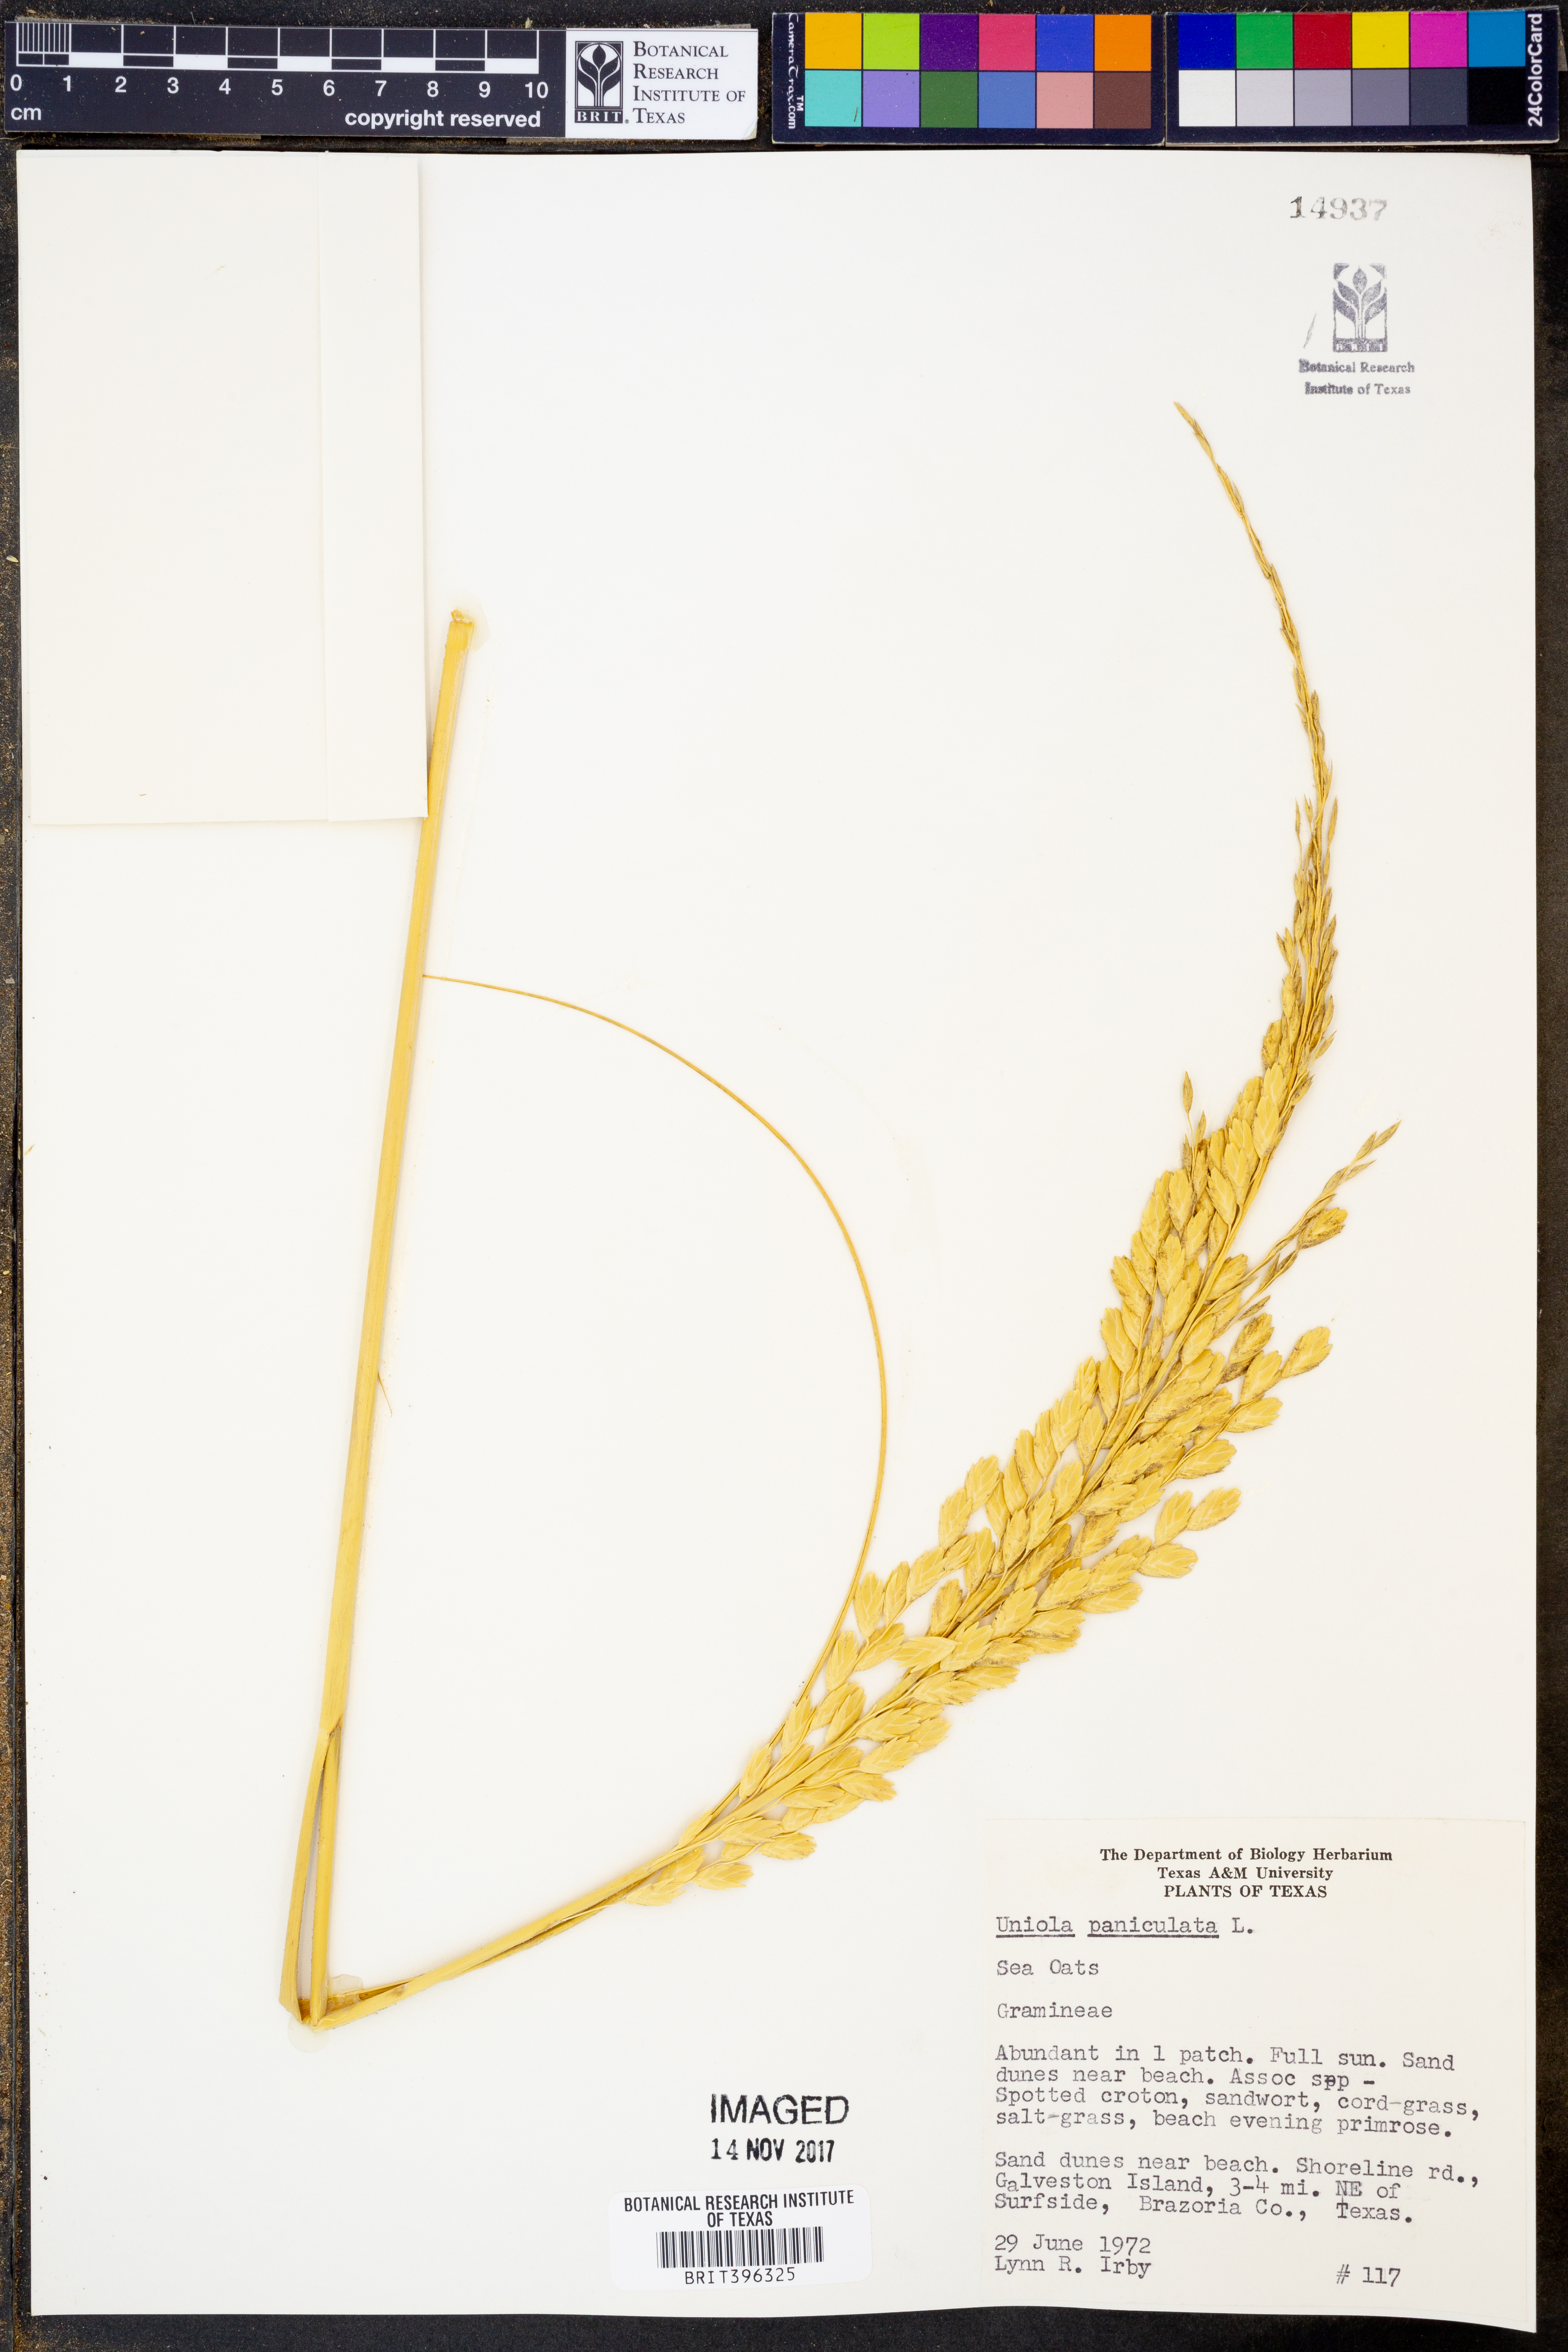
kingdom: Plantae
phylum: Tracheophyta
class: Liliopsida
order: Poales
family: Poaceae
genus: Uniola
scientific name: Uniola paniculata
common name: Seaside-oats
